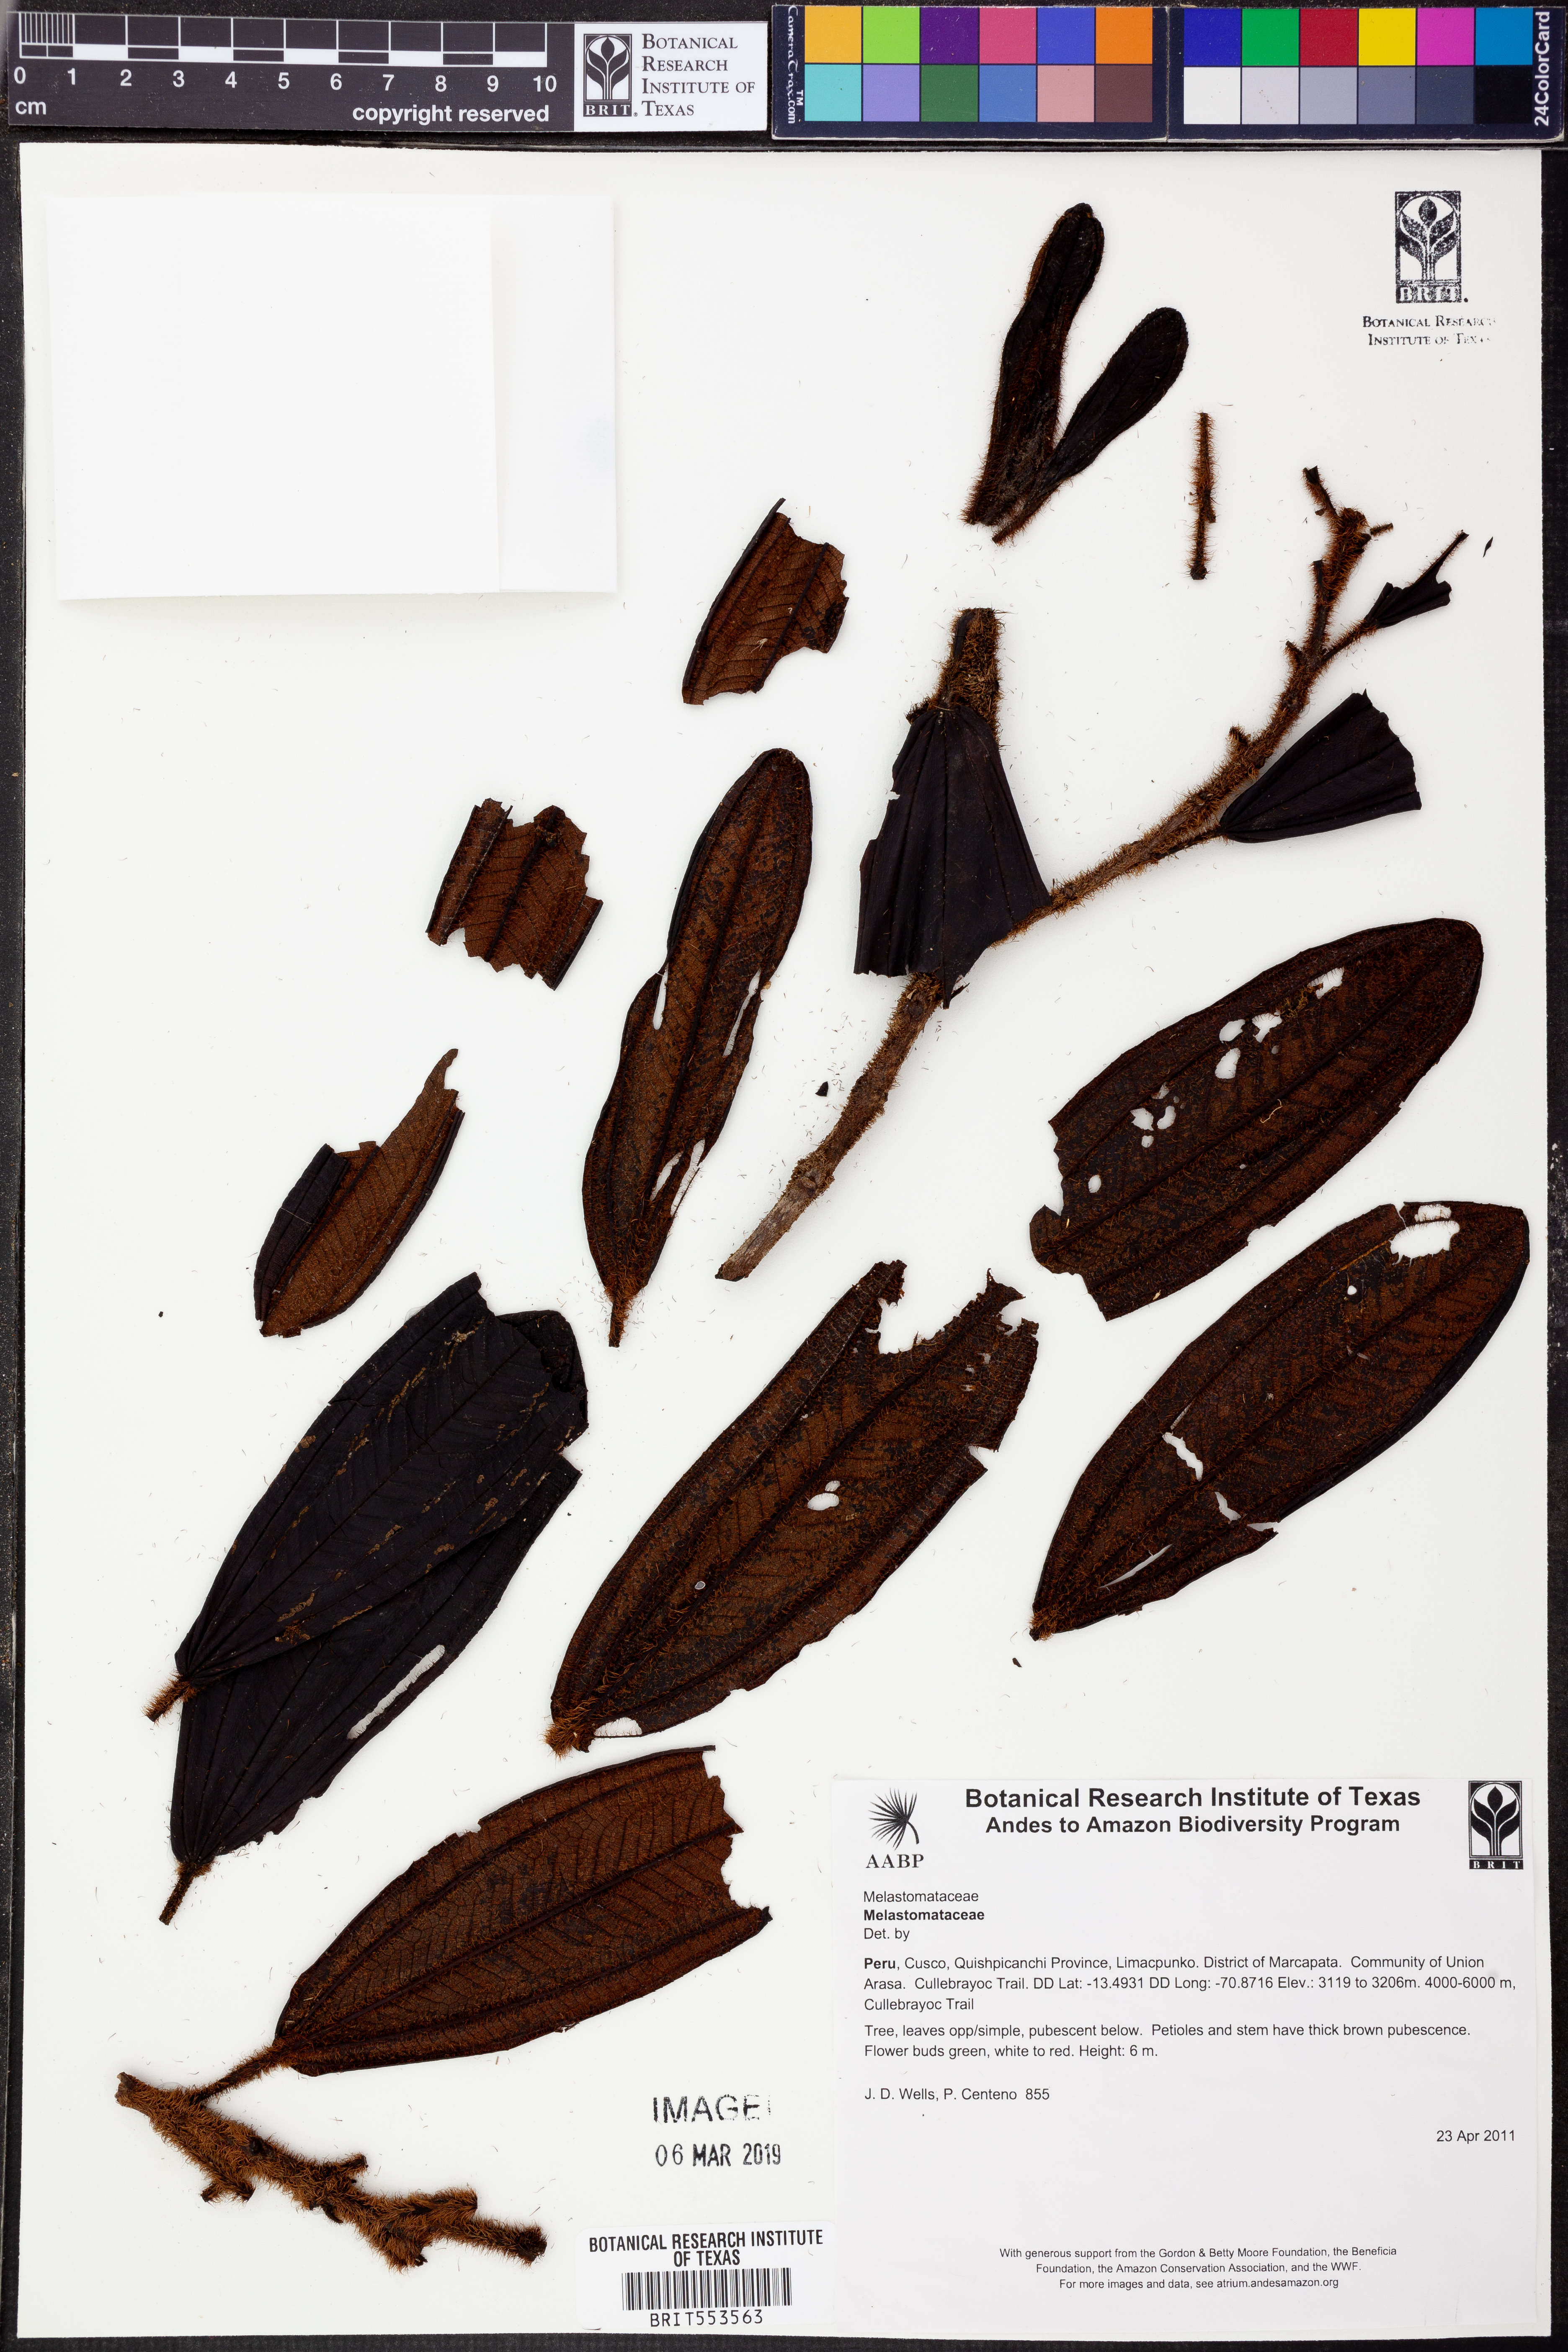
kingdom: Plantae
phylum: Tracheophyta
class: Magnoliopsida
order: Myrtales
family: Melastomataceae
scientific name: Melastomataceae
